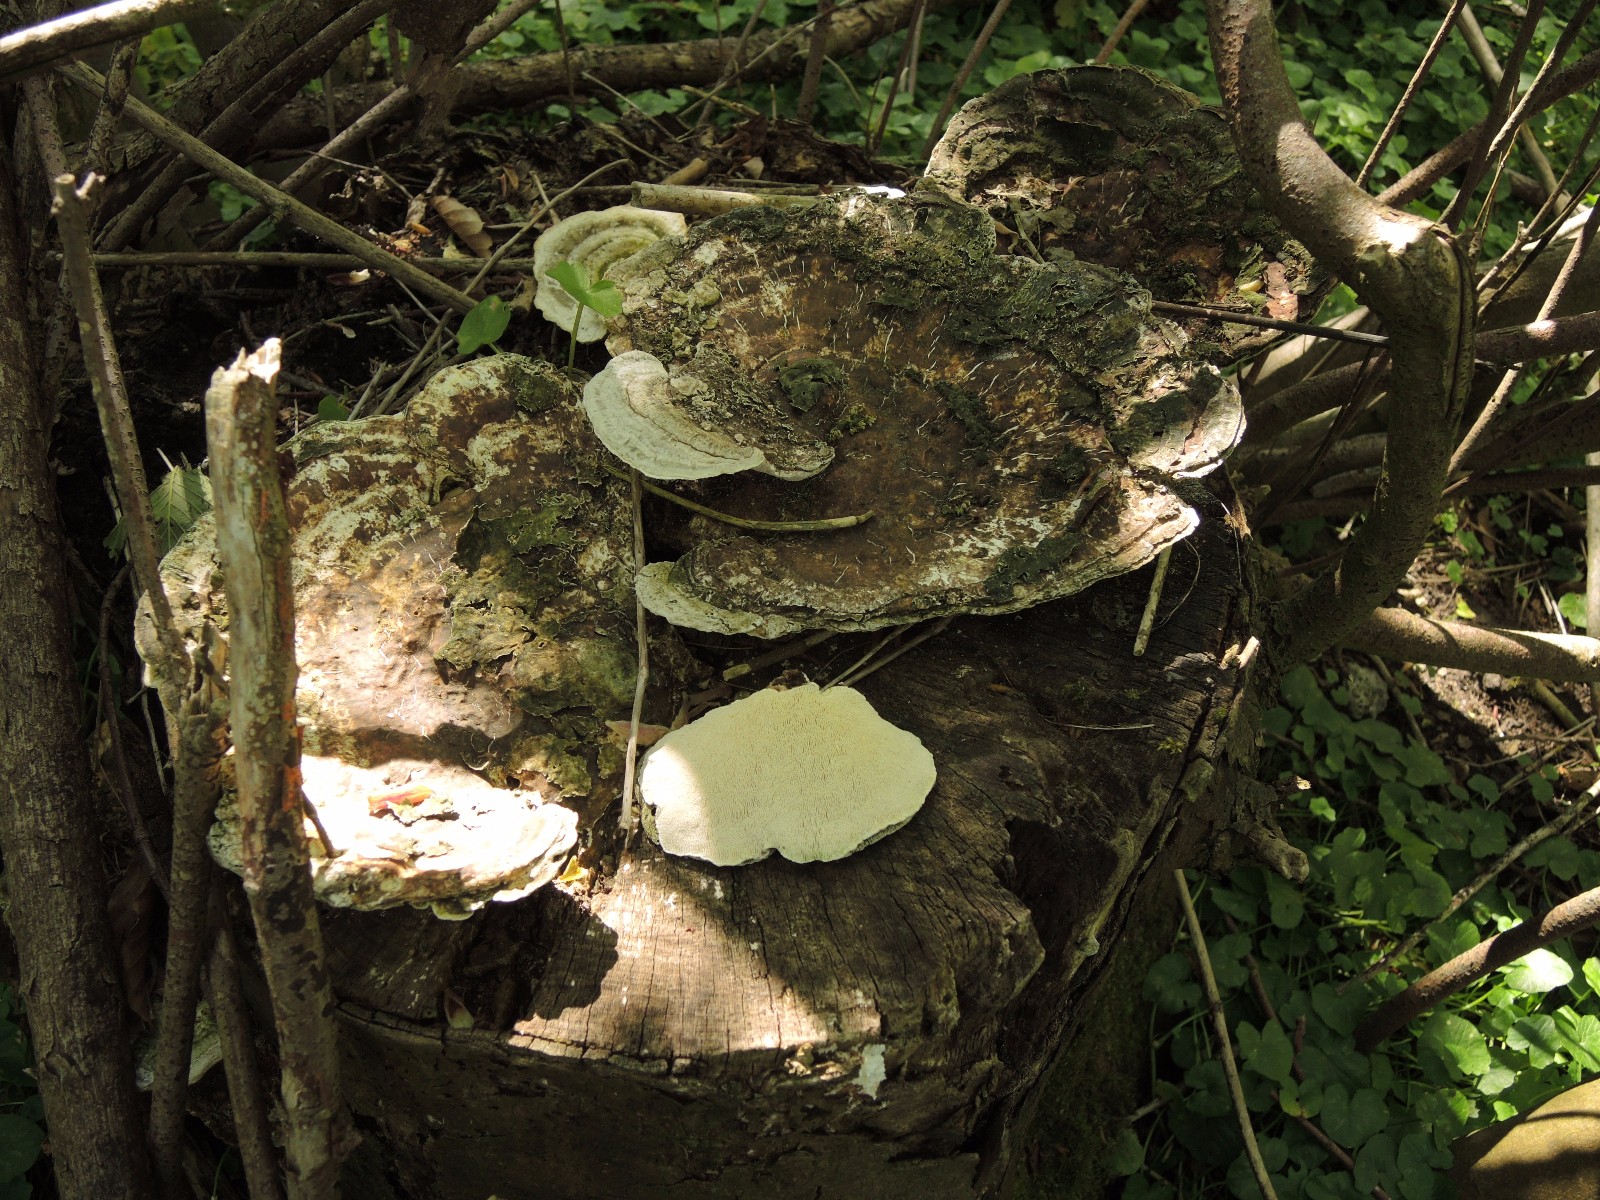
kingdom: Fungi
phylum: Basidiomycota
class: Agaricomycetes
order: Polyporales
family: Polyporaceae
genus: Trametes
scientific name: Trametes gibbosa
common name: puklet læderporesvamp
